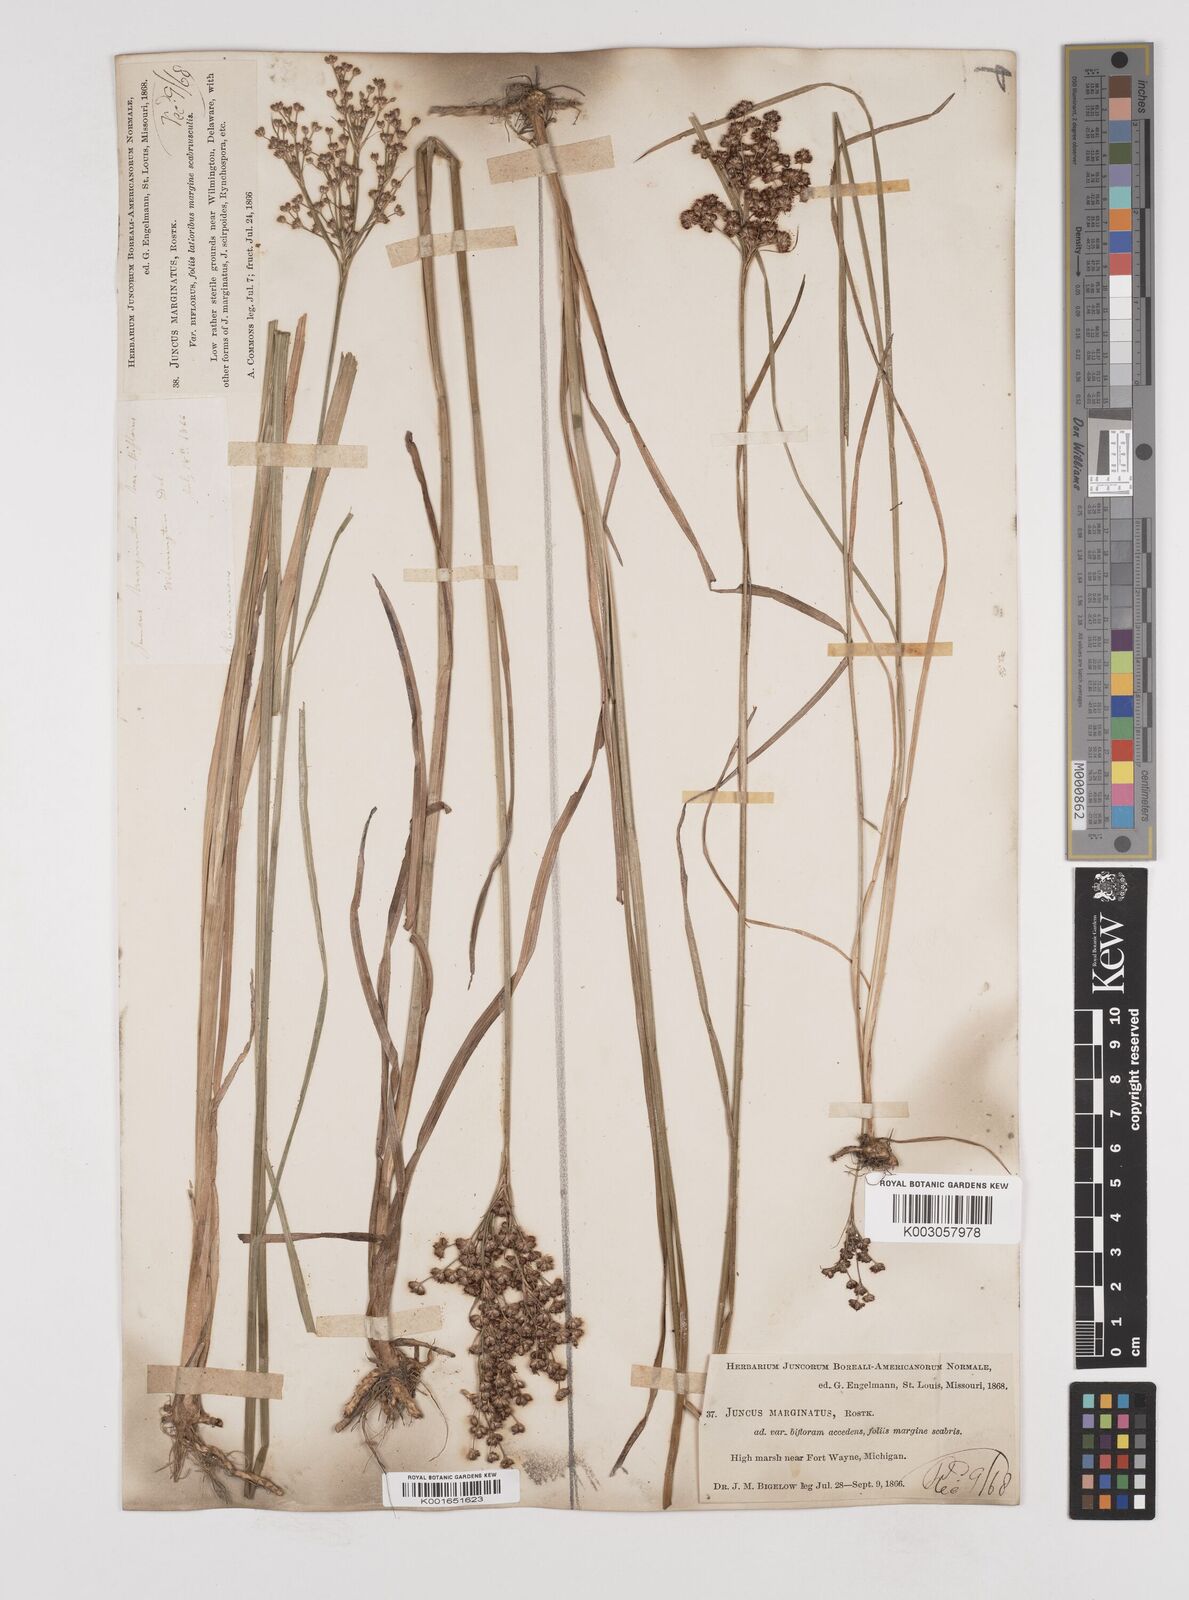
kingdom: Plantae
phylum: Tracheophyta
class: Liliopsida
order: Poales
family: Juncaceae
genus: Juncus
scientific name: Juncus marginatus
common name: Grass-leaf rush
